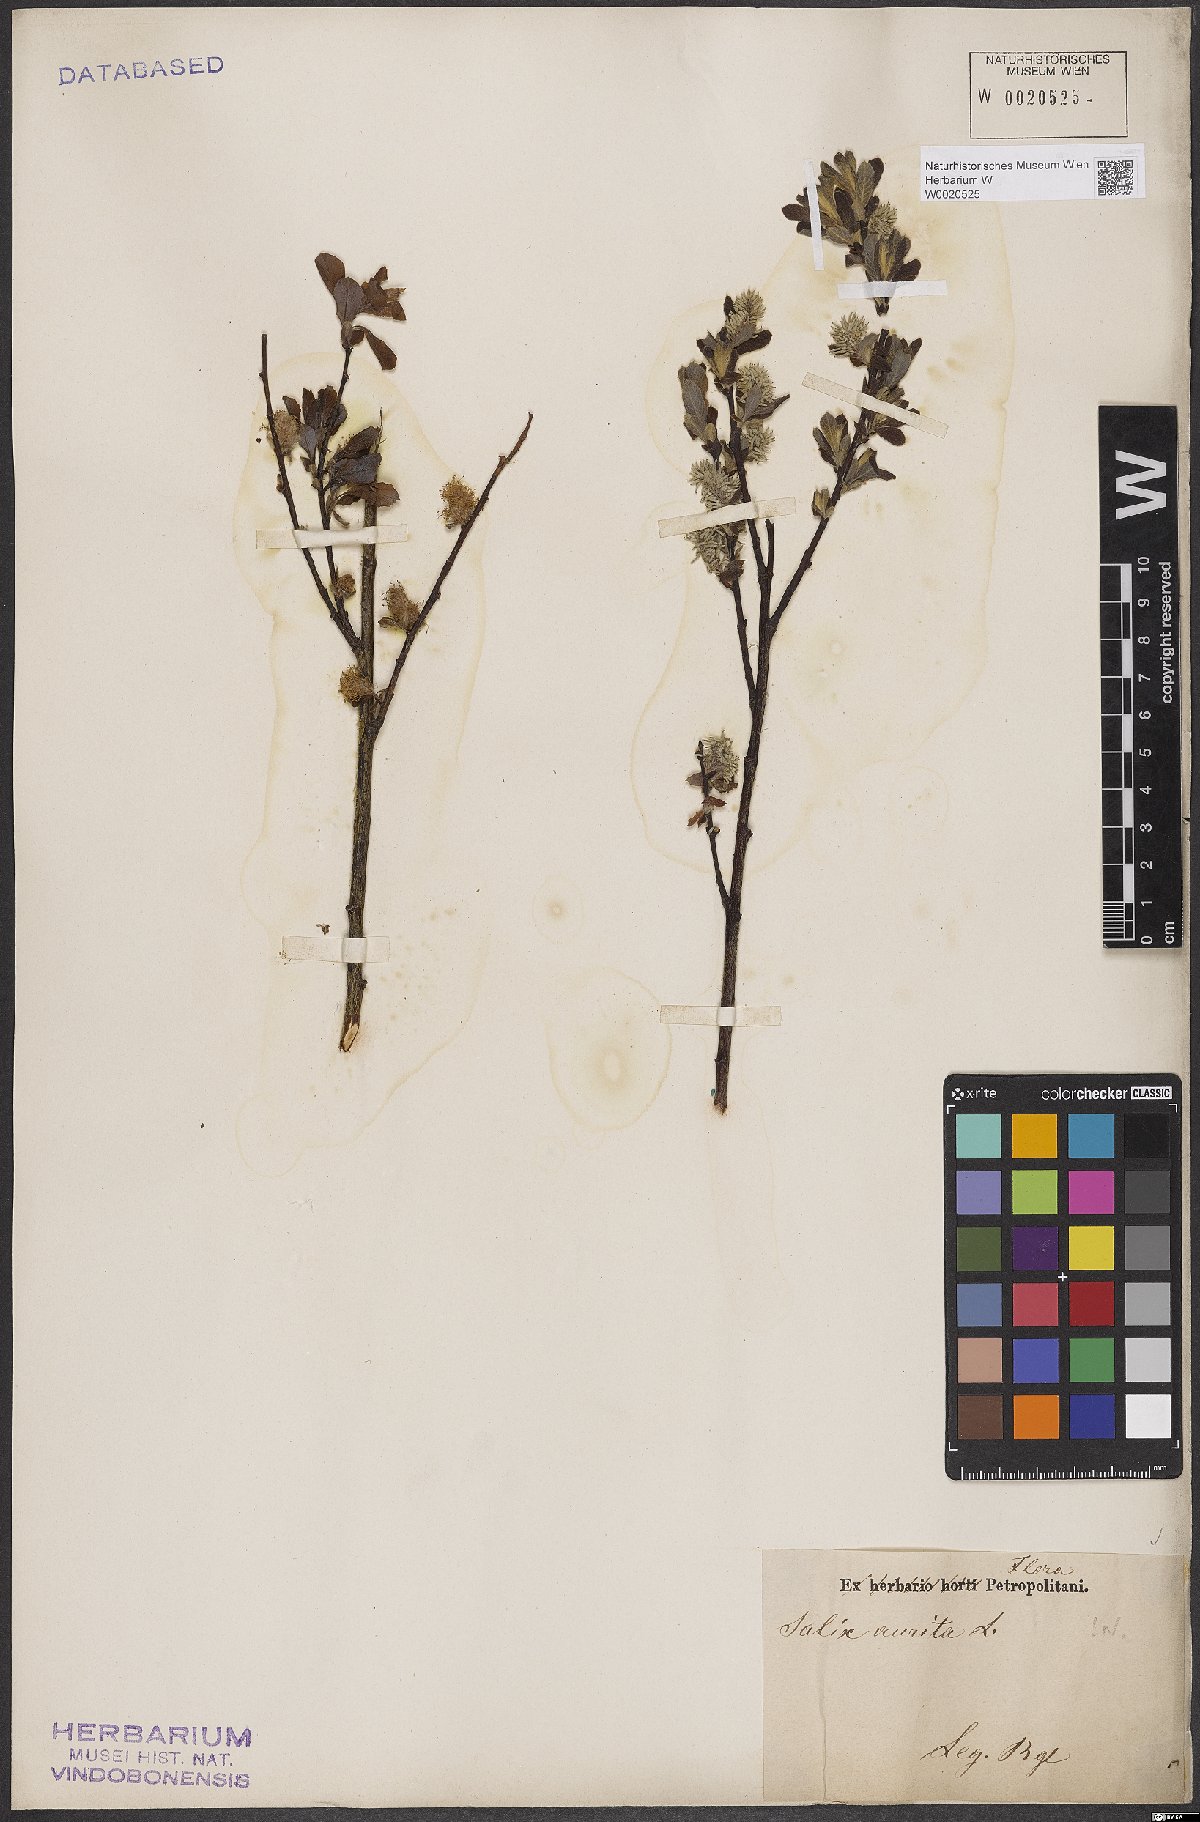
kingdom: Plantae
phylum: Tracheophyta
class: Magnoliopsida
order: Malpighiales
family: Salicaceae
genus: Salix
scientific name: Salix aurita
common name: Eared willow
